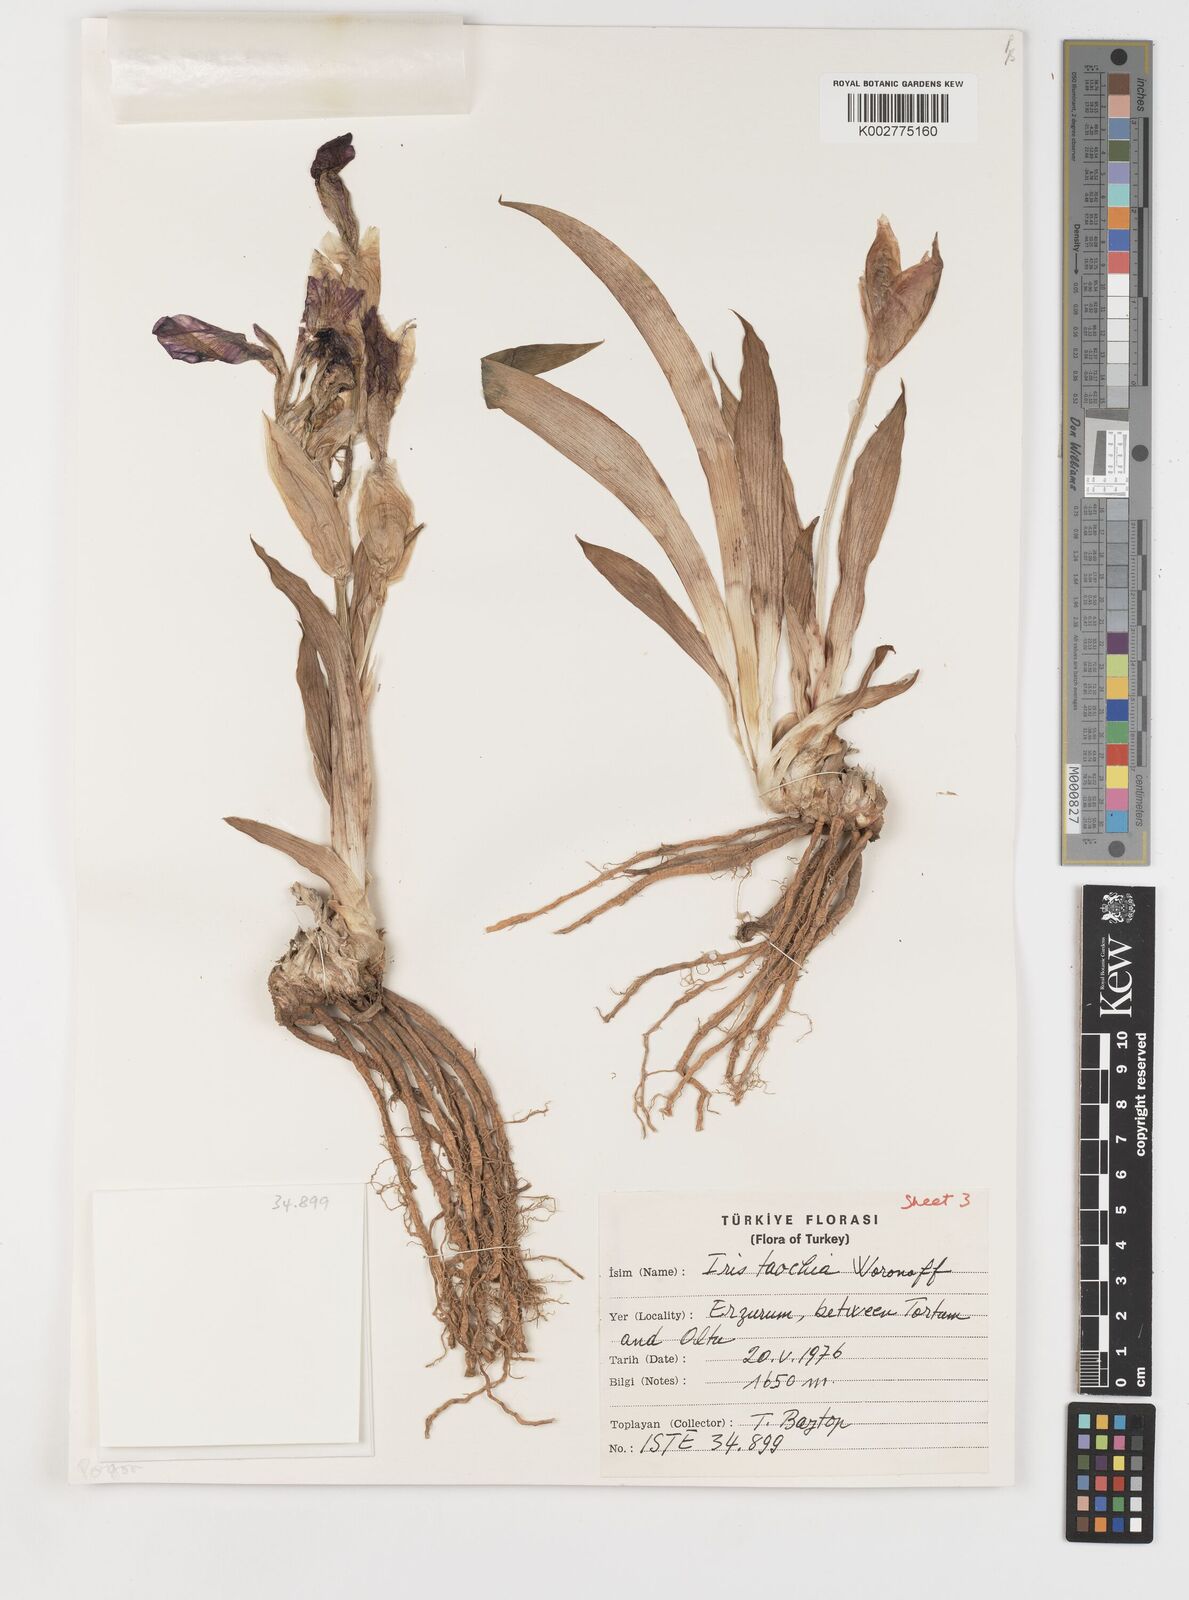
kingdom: Plantae
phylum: Tracheophyta
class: Liliopsida
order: Asparagales
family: Iridaceae
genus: Iris
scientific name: Iris taochia
